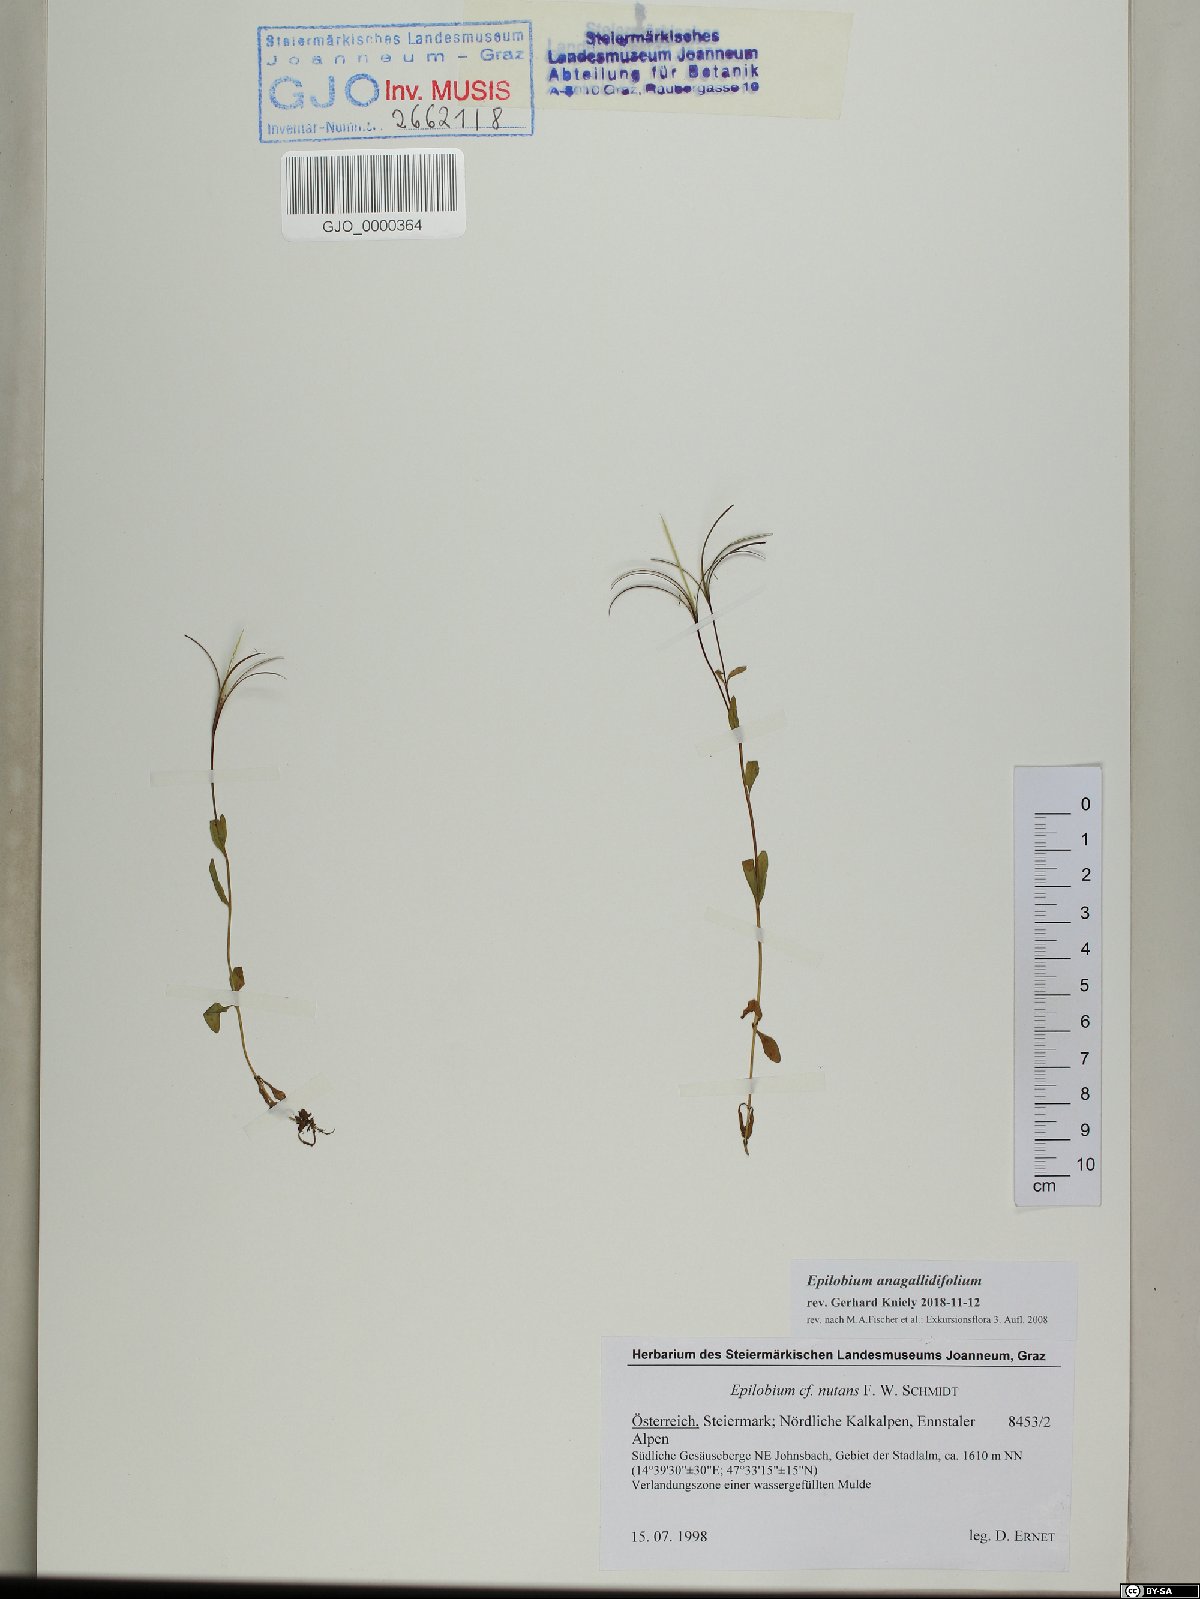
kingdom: Plantae
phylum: Tracheophyta
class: Magnoliopsida
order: Myrtales
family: Onagraceae
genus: Epilobium
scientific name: Epilobium anagallidifolium
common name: Alpine willowherb
